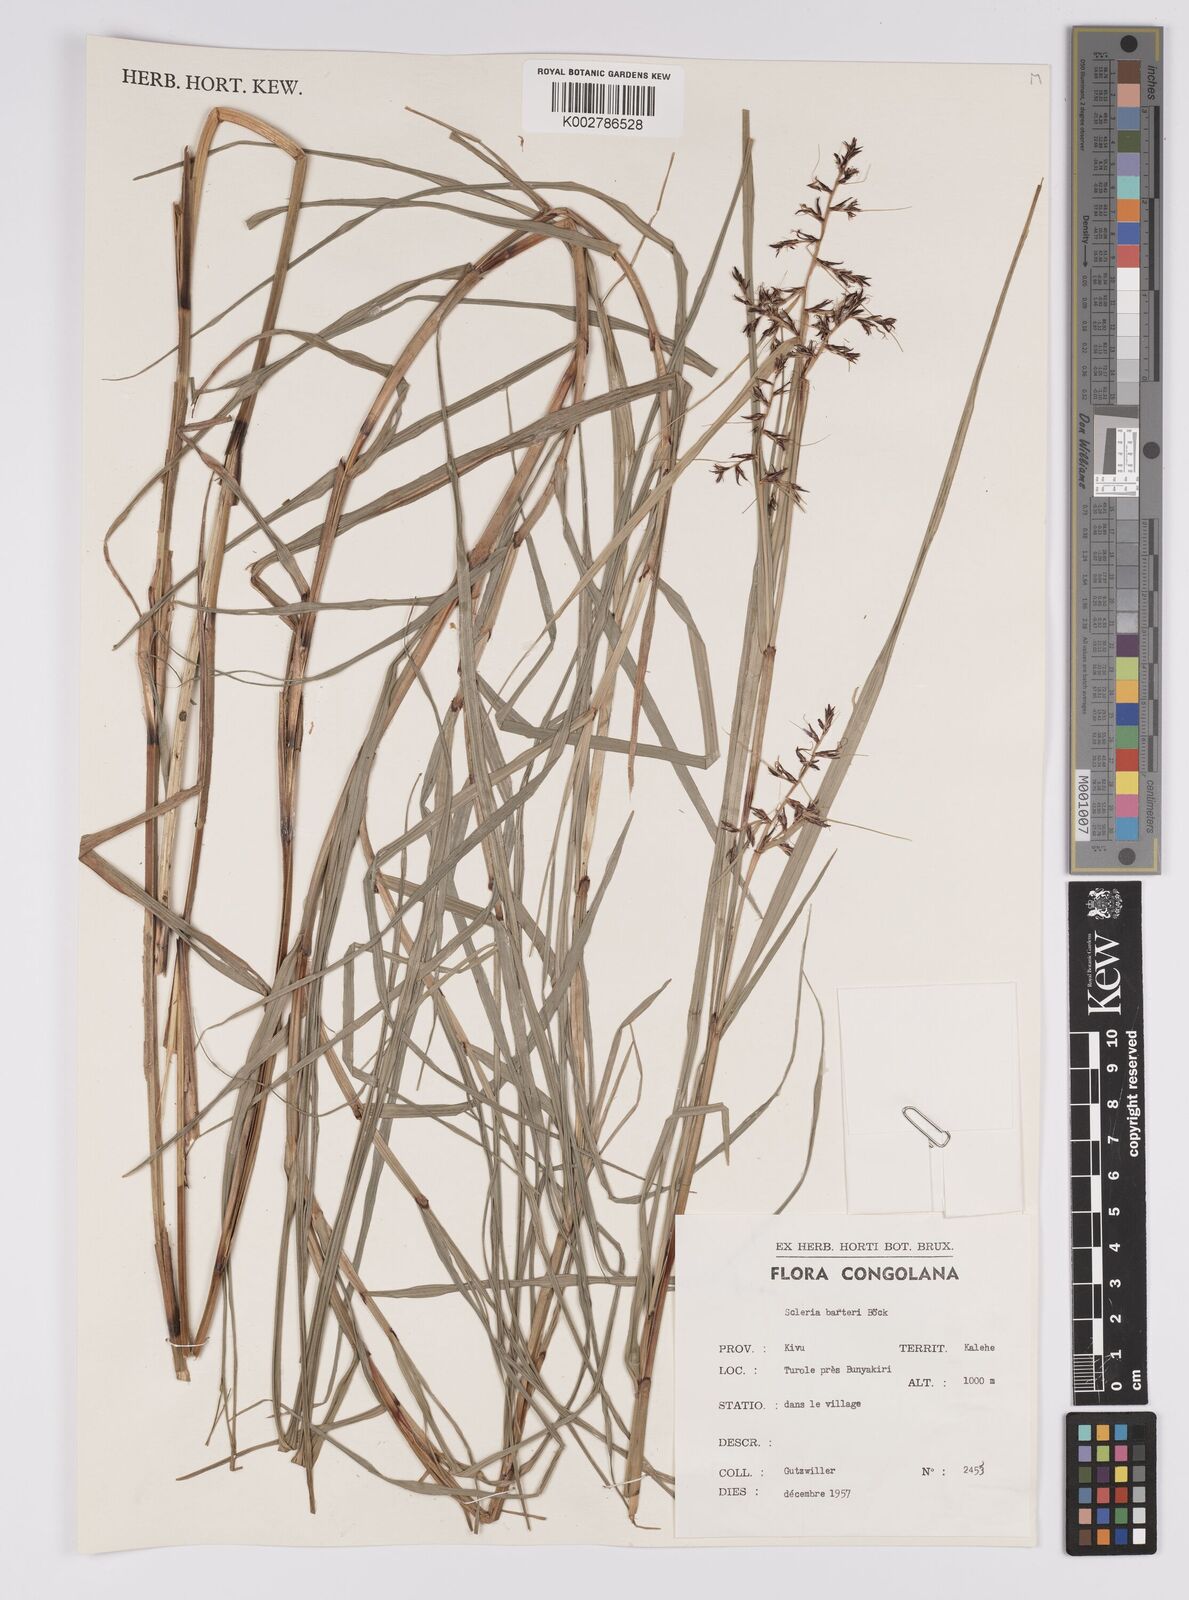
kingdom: Plantae
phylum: Tracheophyta
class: Liliopsida
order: Poales
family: Cyperaceae
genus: Scleria
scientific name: Scleria boivinii
